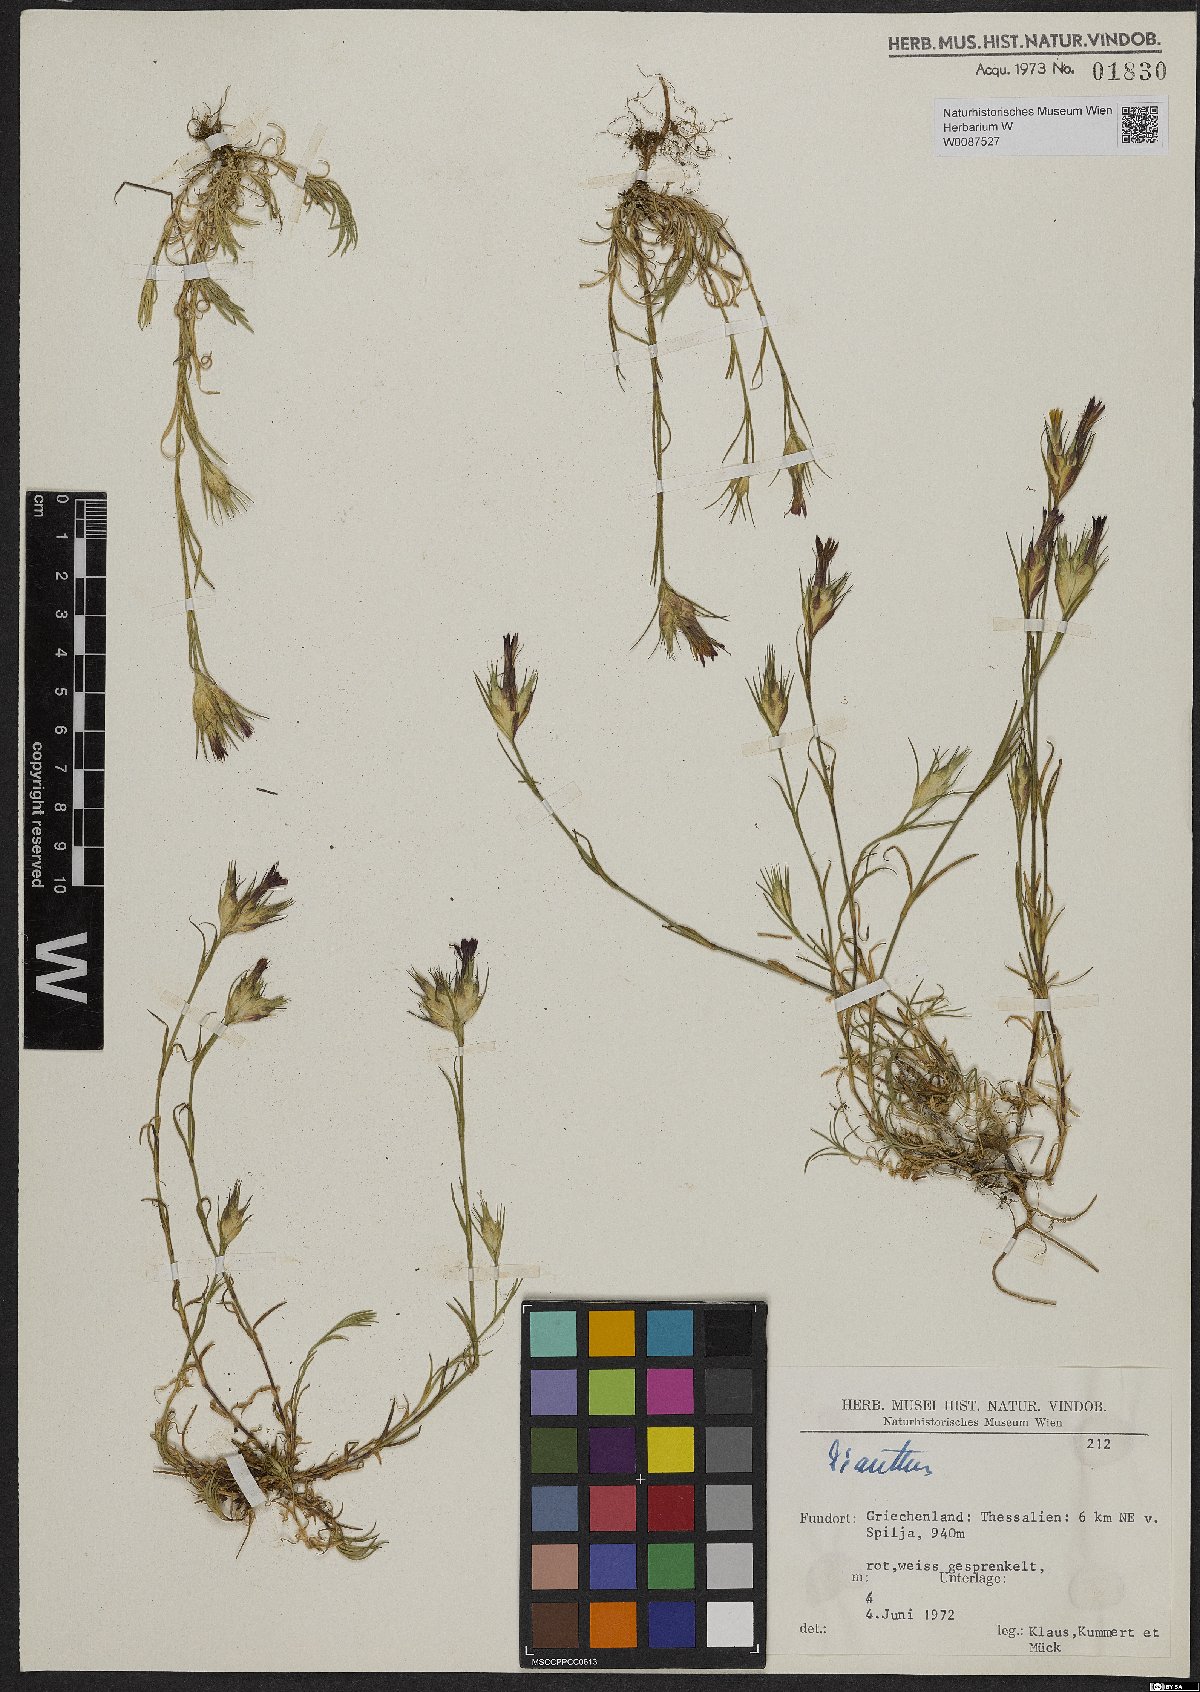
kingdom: Plantae
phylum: Tracheophyta
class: Magnoliopsida
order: Caryophyllales
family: Caryophyllaceae
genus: Dianthus
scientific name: Dianthus
